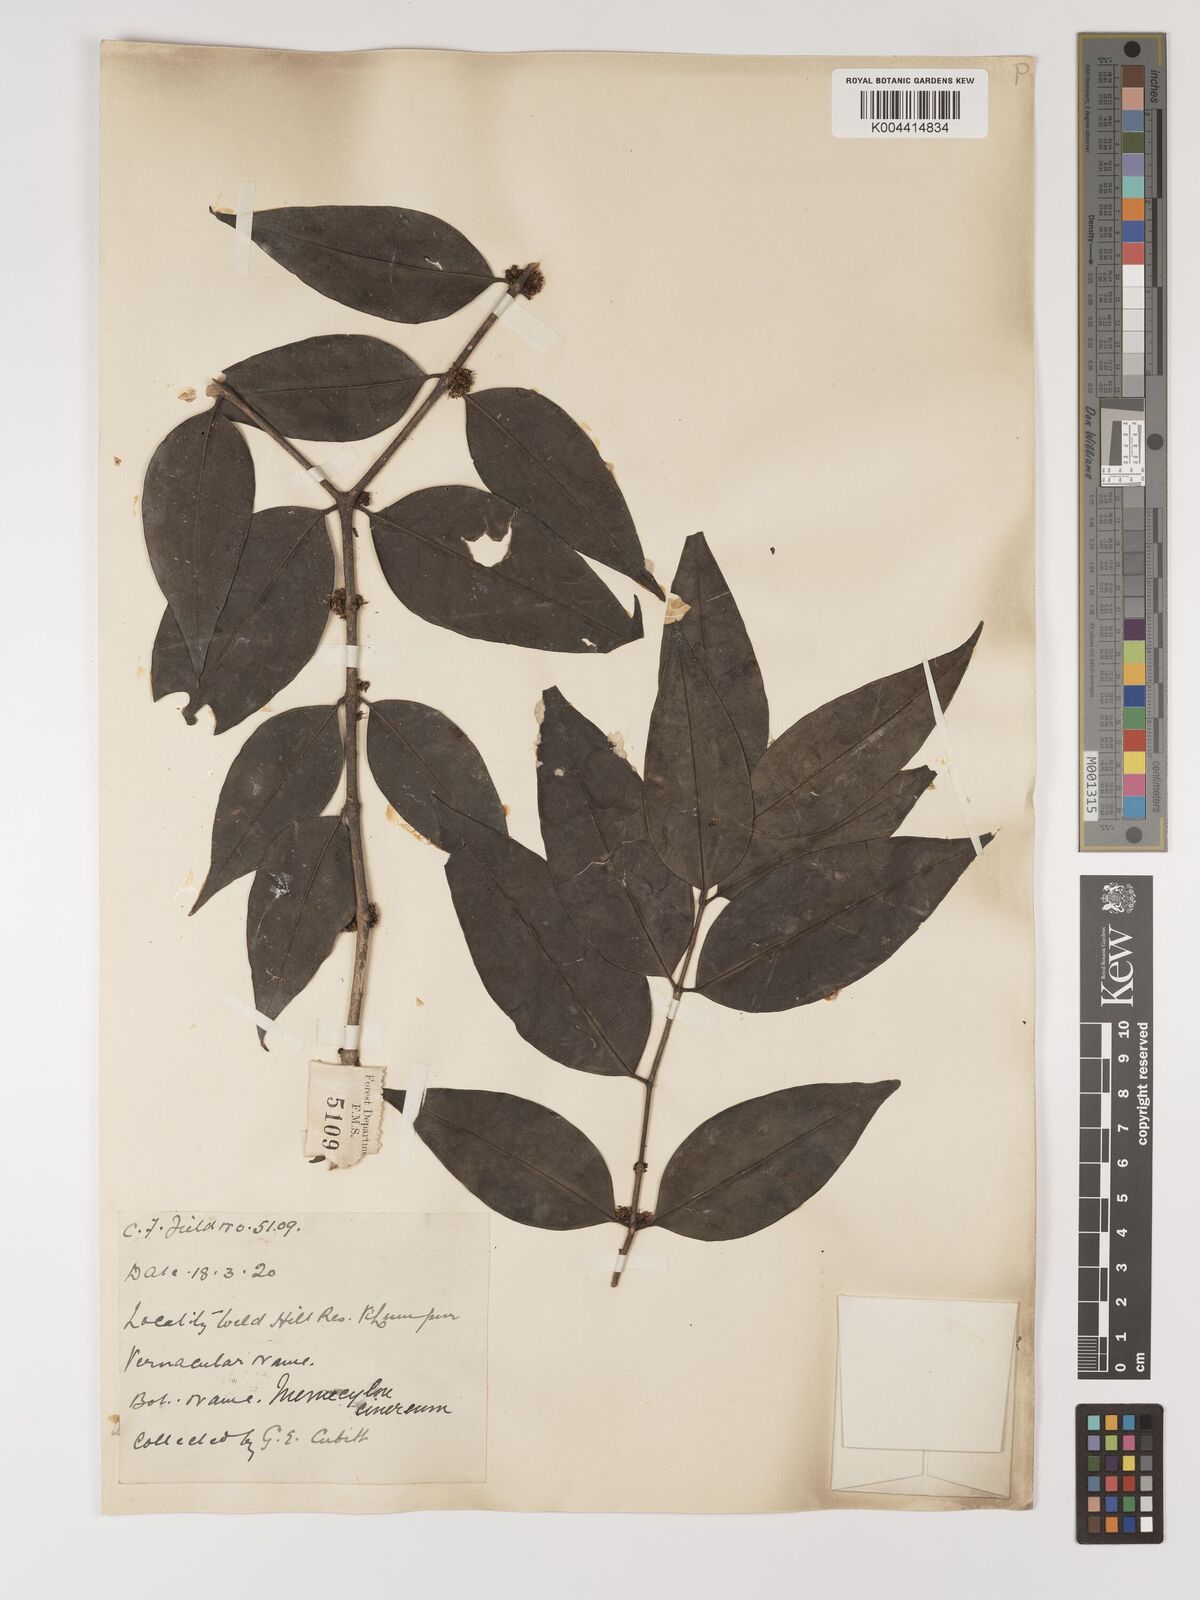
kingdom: Plantae
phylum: Tracheophyta
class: Magnoliopsida
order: Myrtales
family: Melastomataceae
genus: Memecylon
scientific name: Memecylon cinereum
